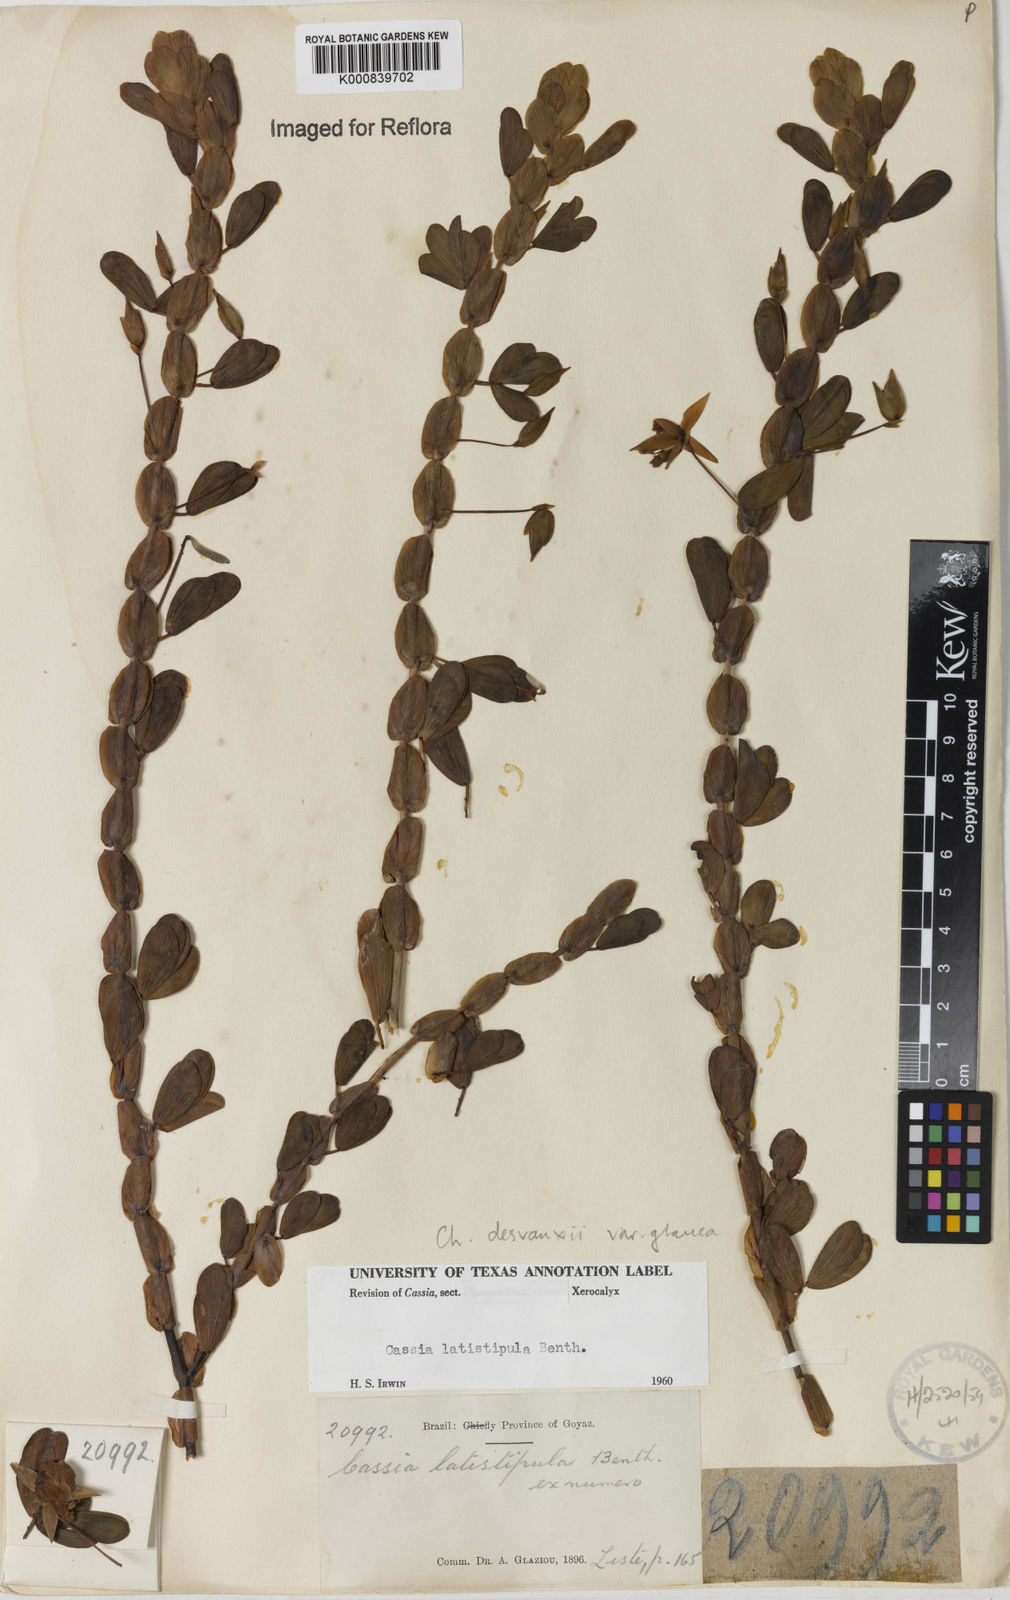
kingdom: Plantae
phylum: Tracheophyta
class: Magnoliopsida
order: Fabales
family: Fabaceae
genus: Chamaecrista
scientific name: Chamaecrista desvauxii
